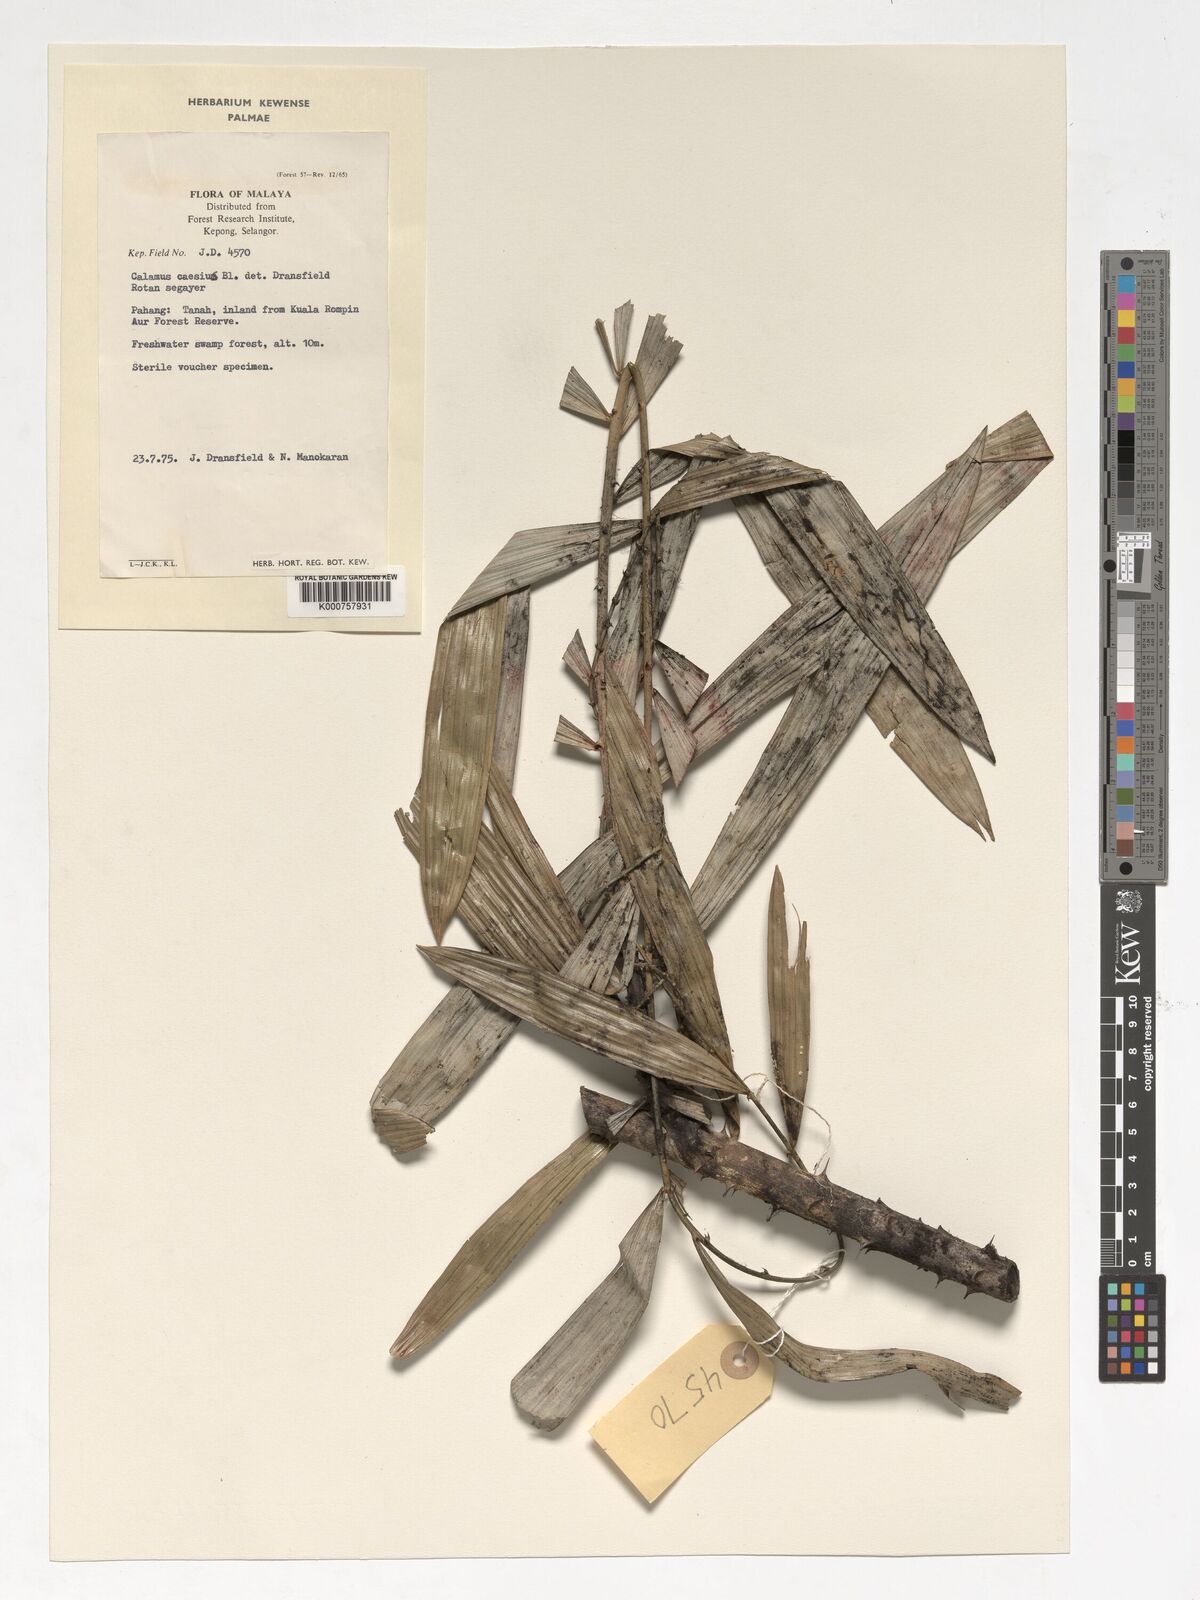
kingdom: Plantae
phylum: Tracheophyta
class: Liliopsida
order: Arecales
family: Arecaceae
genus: Calamus
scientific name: Calamus caesius
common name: Rattan palm
